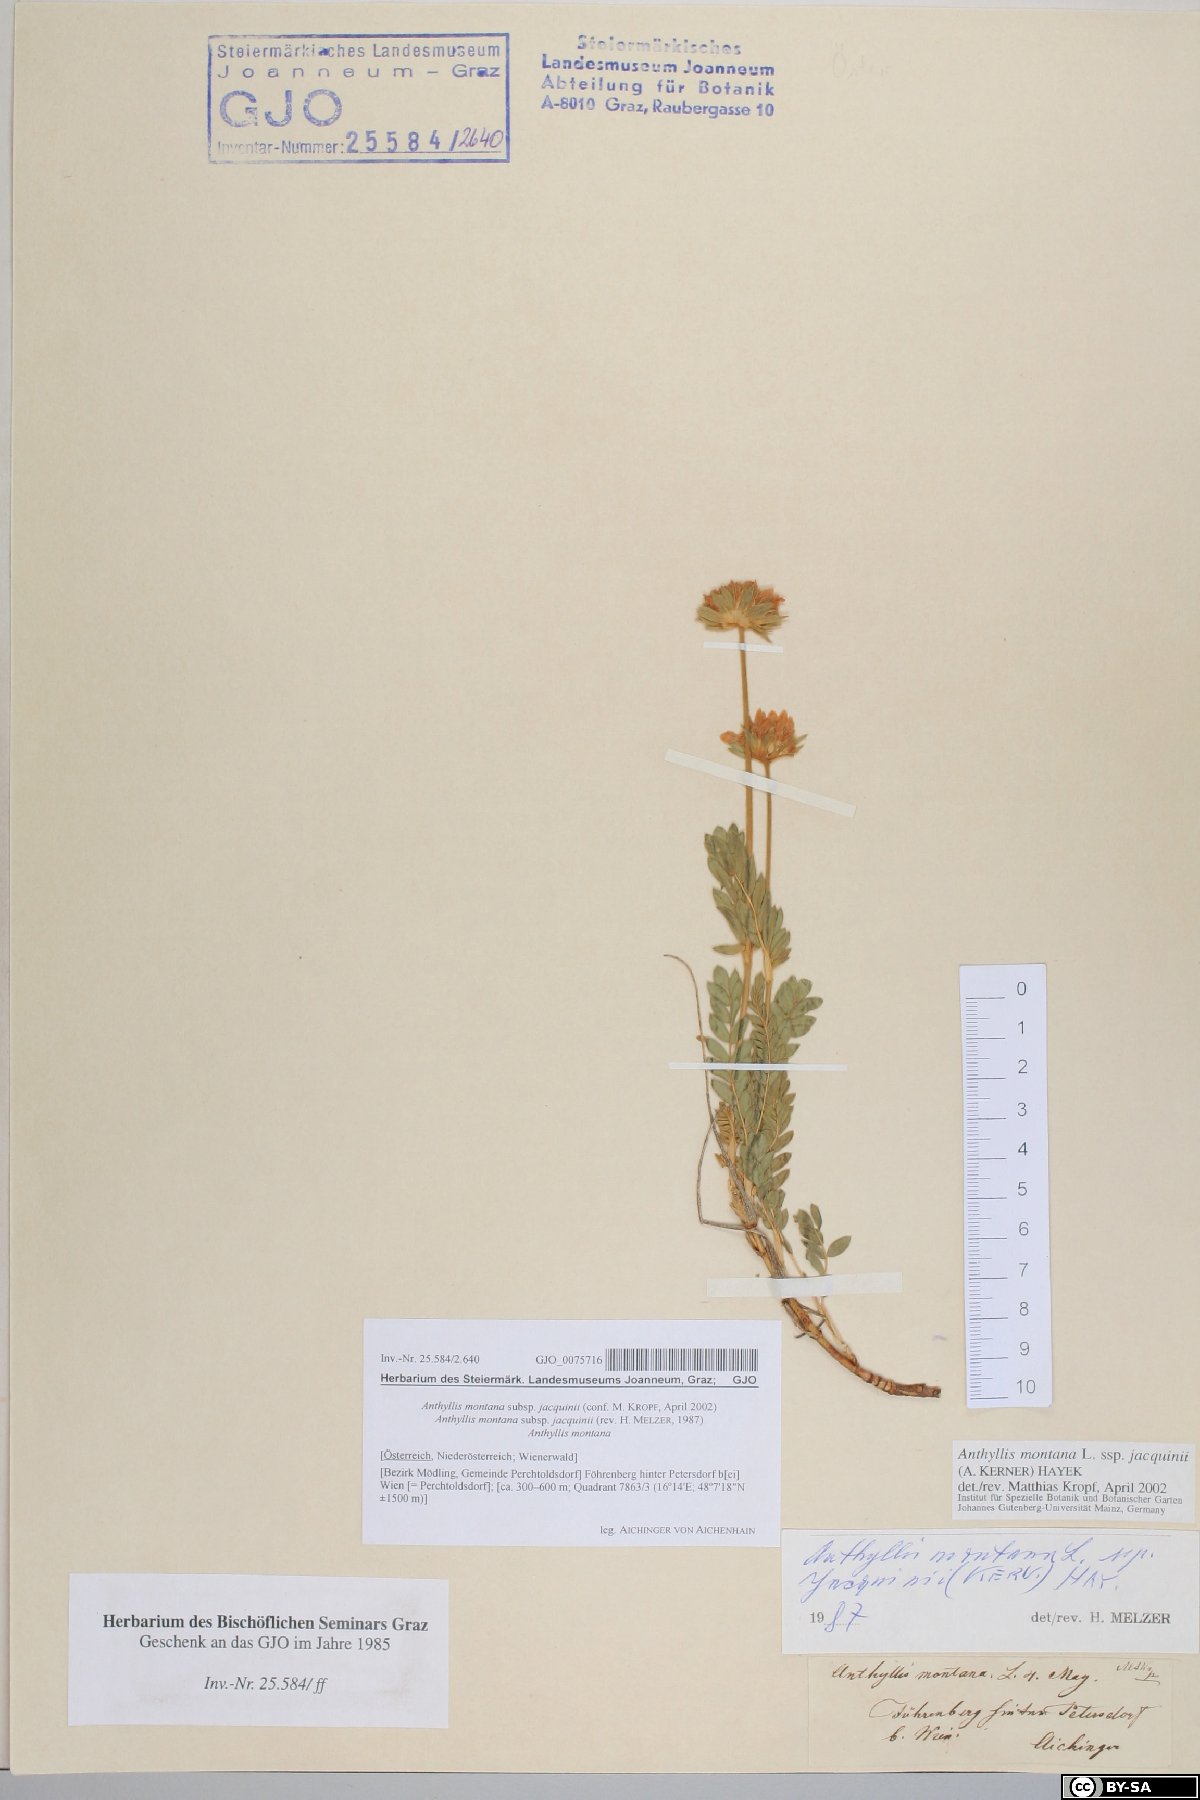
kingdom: Plantae
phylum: Tracheophyta
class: Magnoliopsida
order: Fabales
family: Fabaceae
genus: Anthyllis
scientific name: Anthyllis montana
